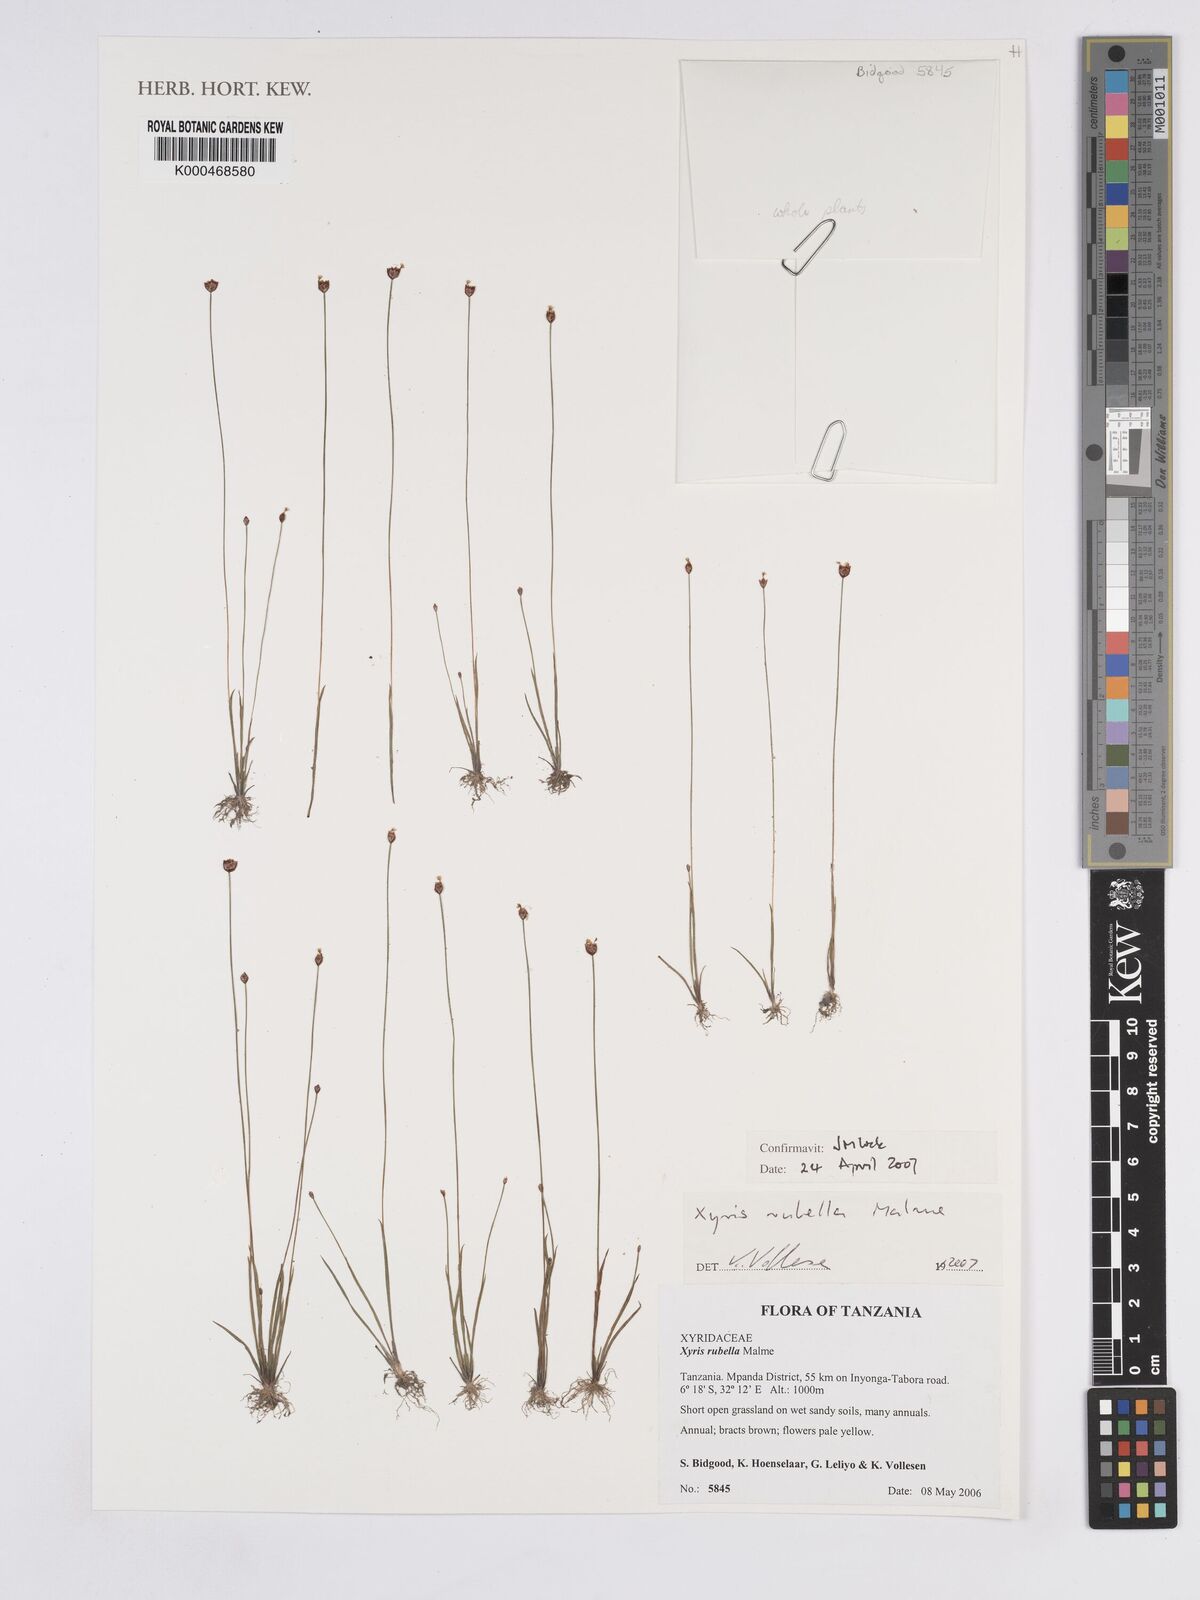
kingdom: Plantae
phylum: Tracheophyta
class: Liliopsida
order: Poales
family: Xyridaceae
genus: Xyris
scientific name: Xyris rubella
